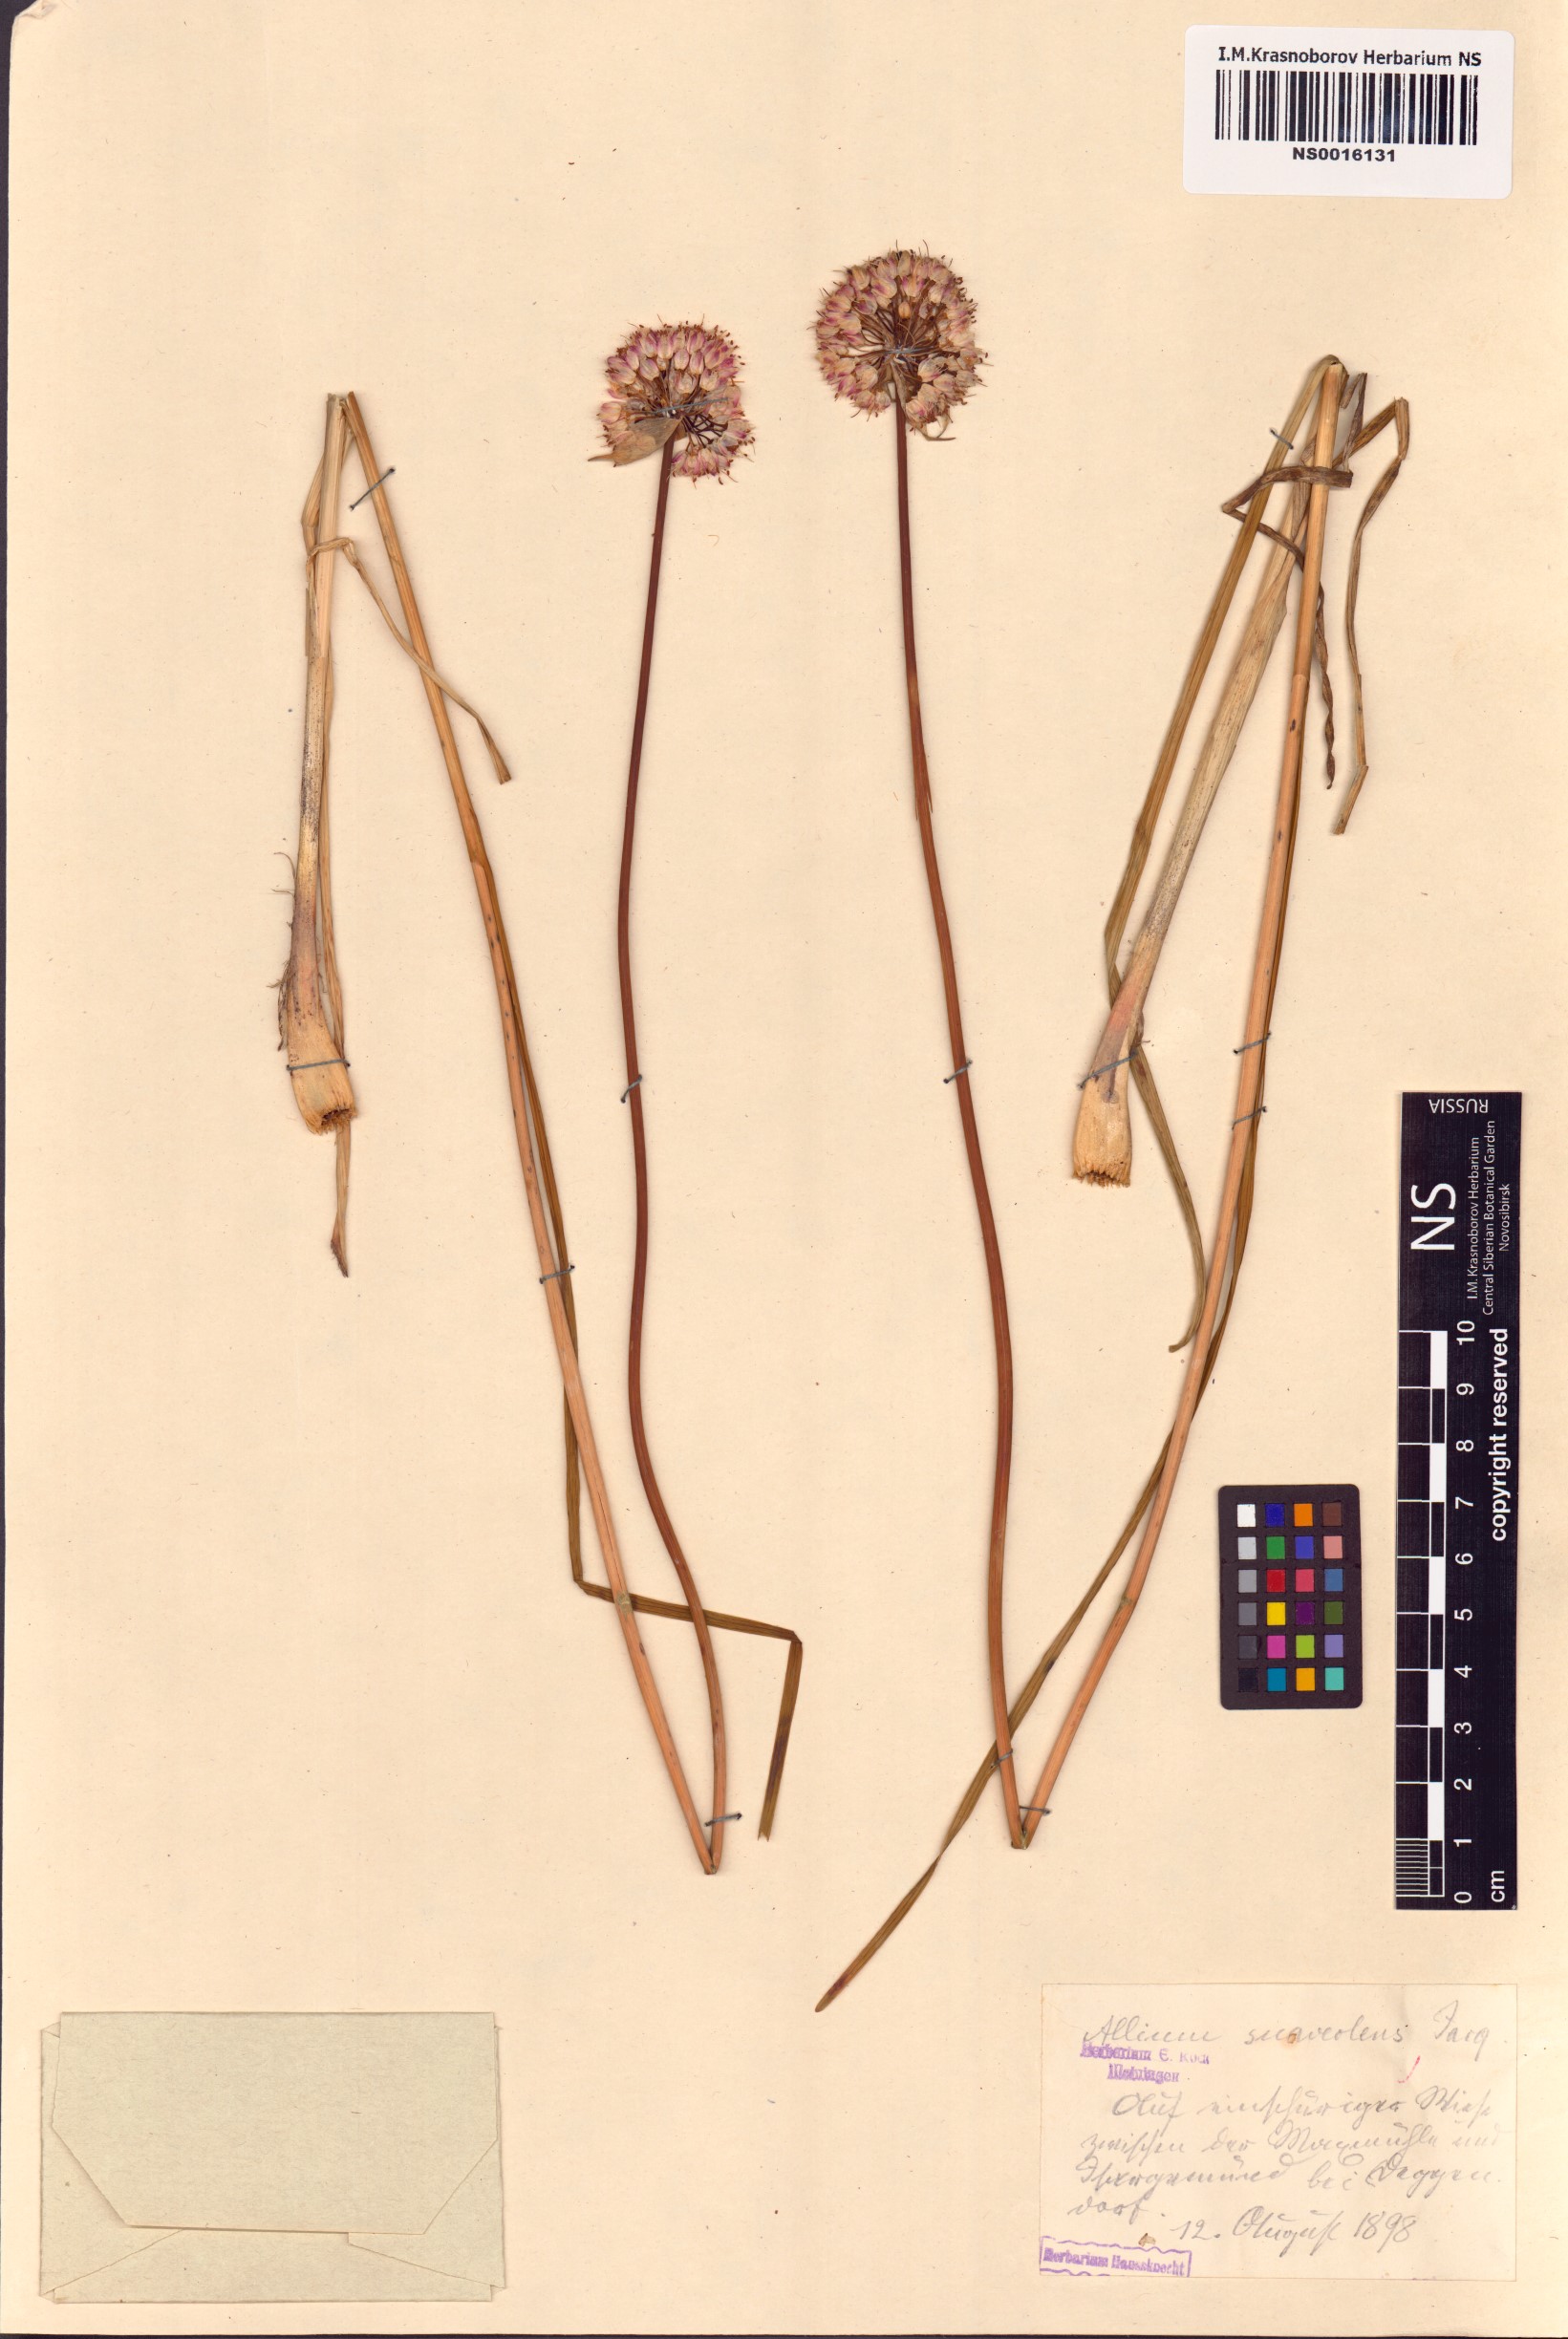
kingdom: Plantae
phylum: Tracheophyta
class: Liliopsida
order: Asparagales
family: Amaryllidaceae
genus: Allium
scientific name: Allium suaveolens
